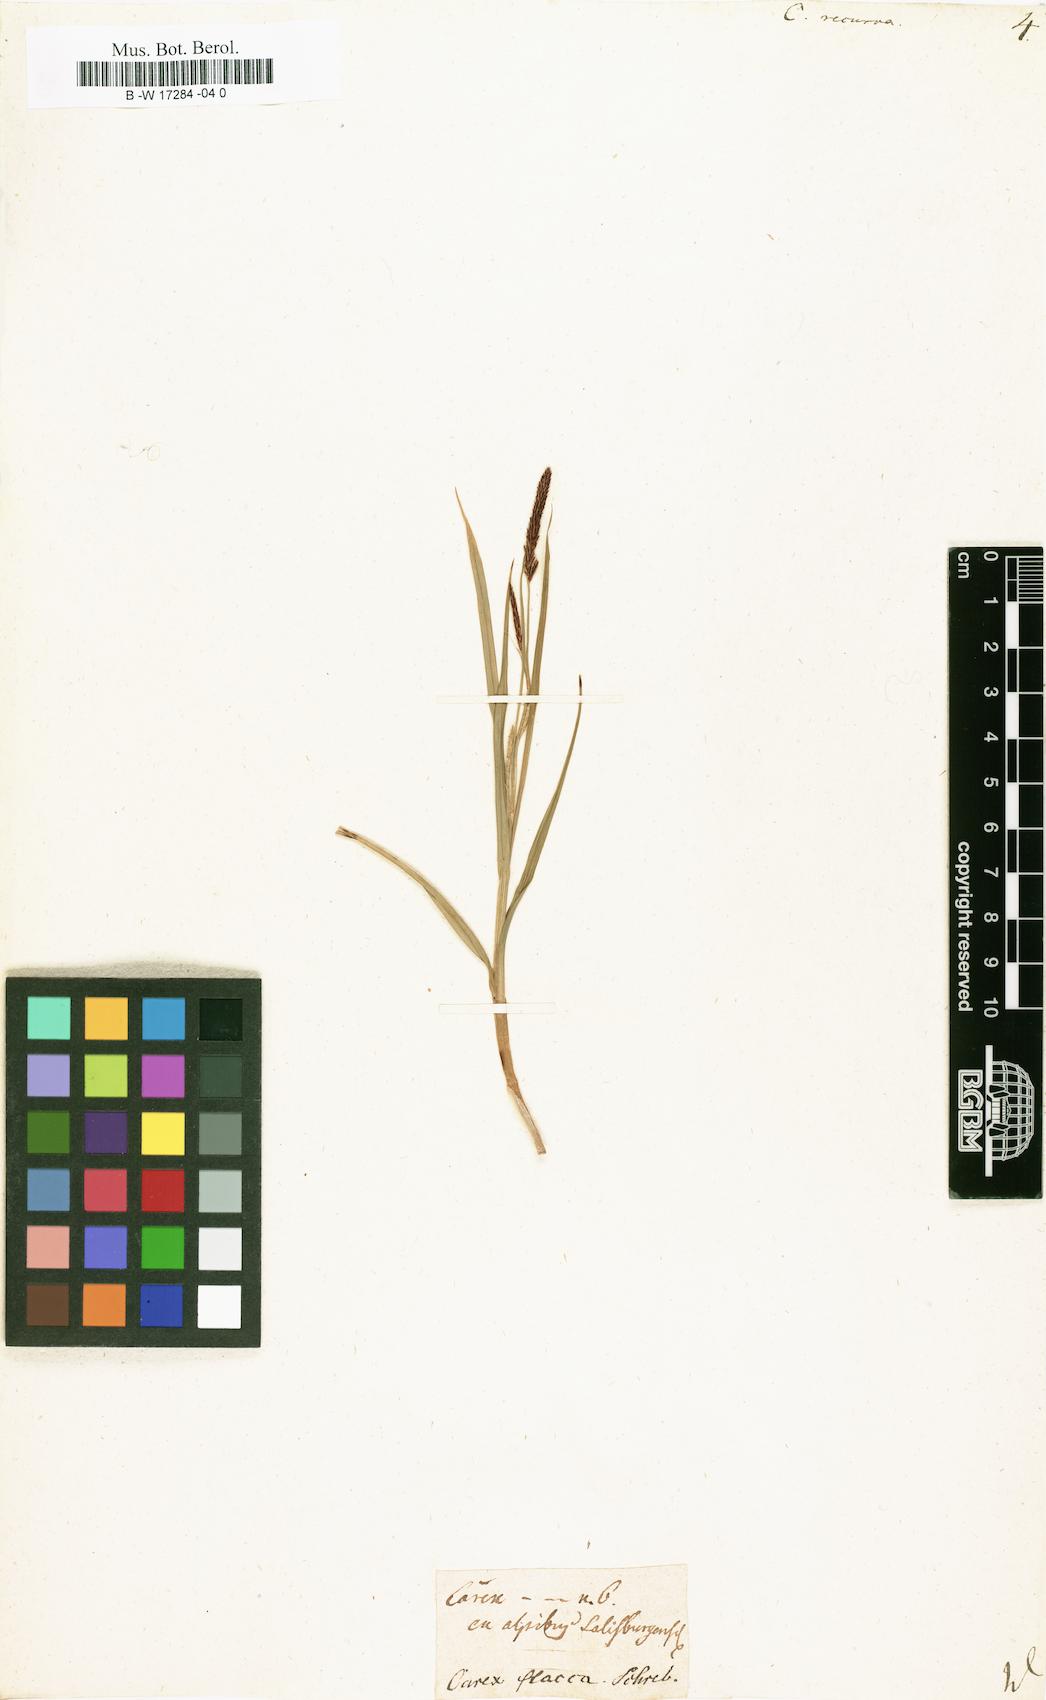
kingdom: Plantae
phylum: Tracheophyta
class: Liliopsida
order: Poales
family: Cyperaceae
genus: Carex
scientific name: Carex flacca
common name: Glaucous sedge
